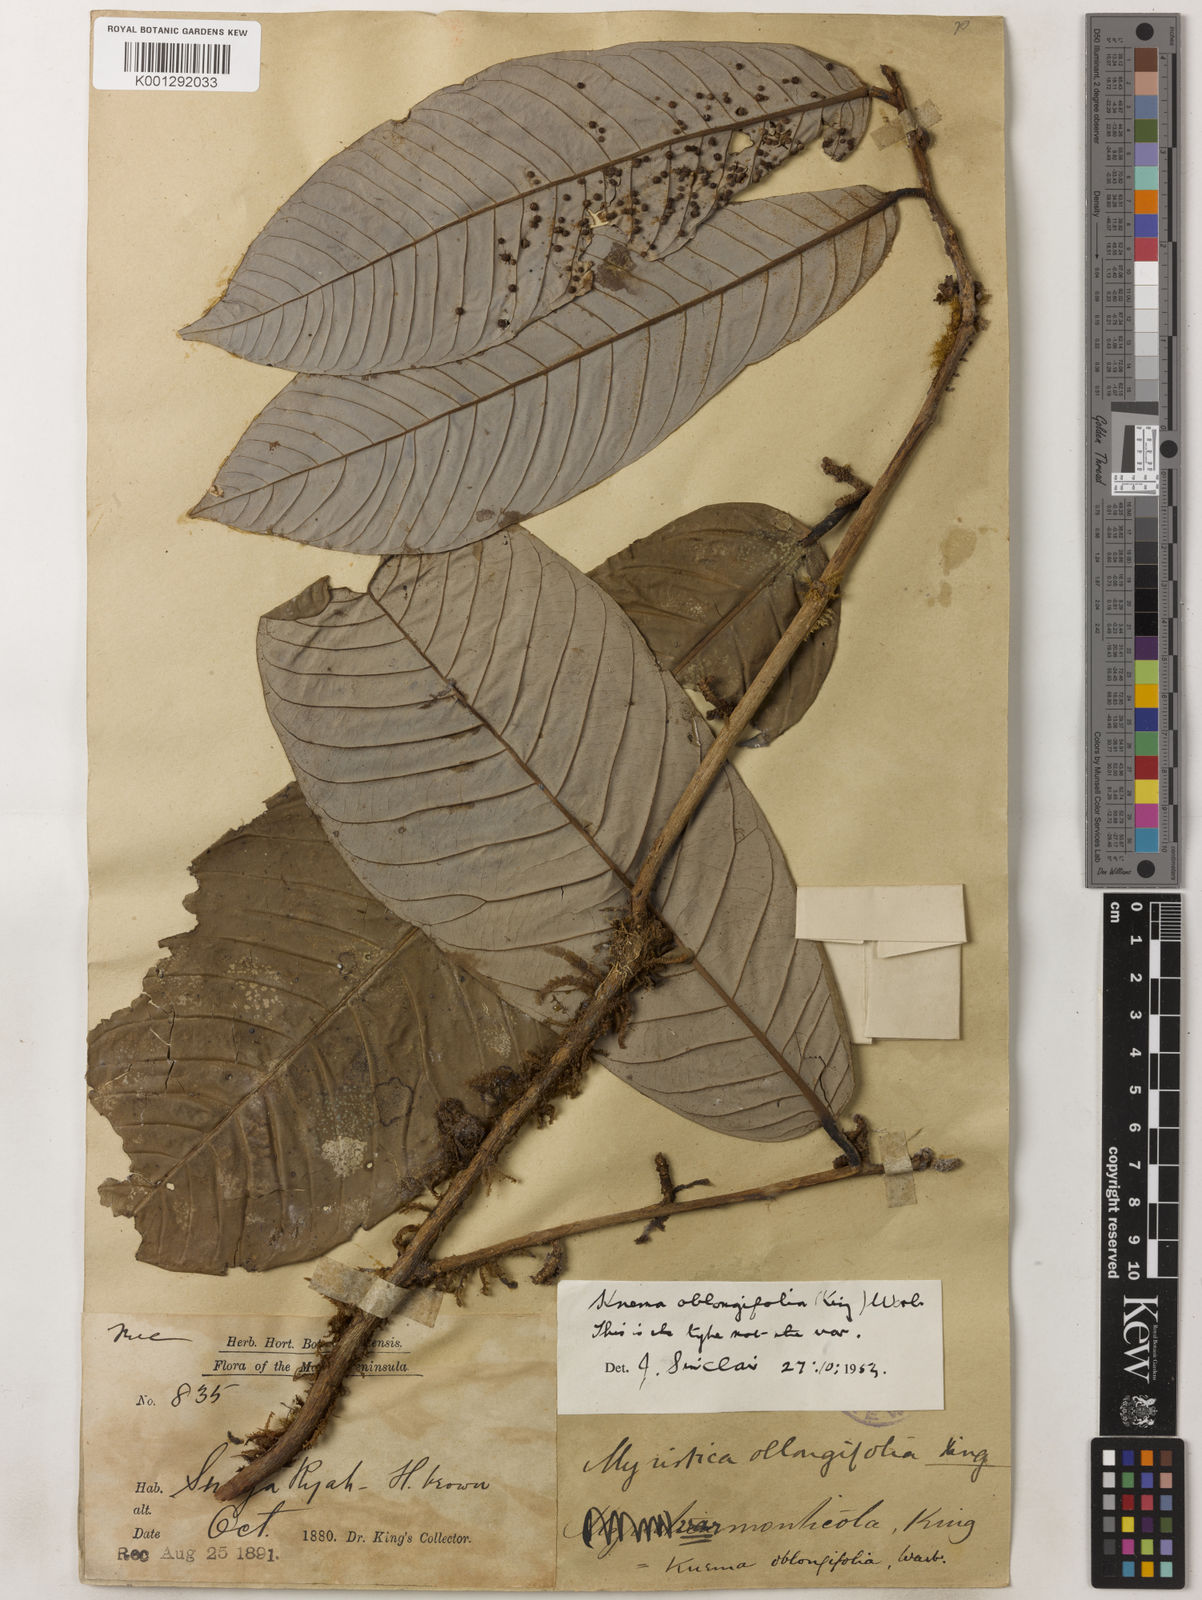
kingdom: Plantae
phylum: Tracheophyta
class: Magnoliopsida
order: Magnoliales
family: Myristicaceae
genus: Knema
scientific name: Knema oblongifolia
